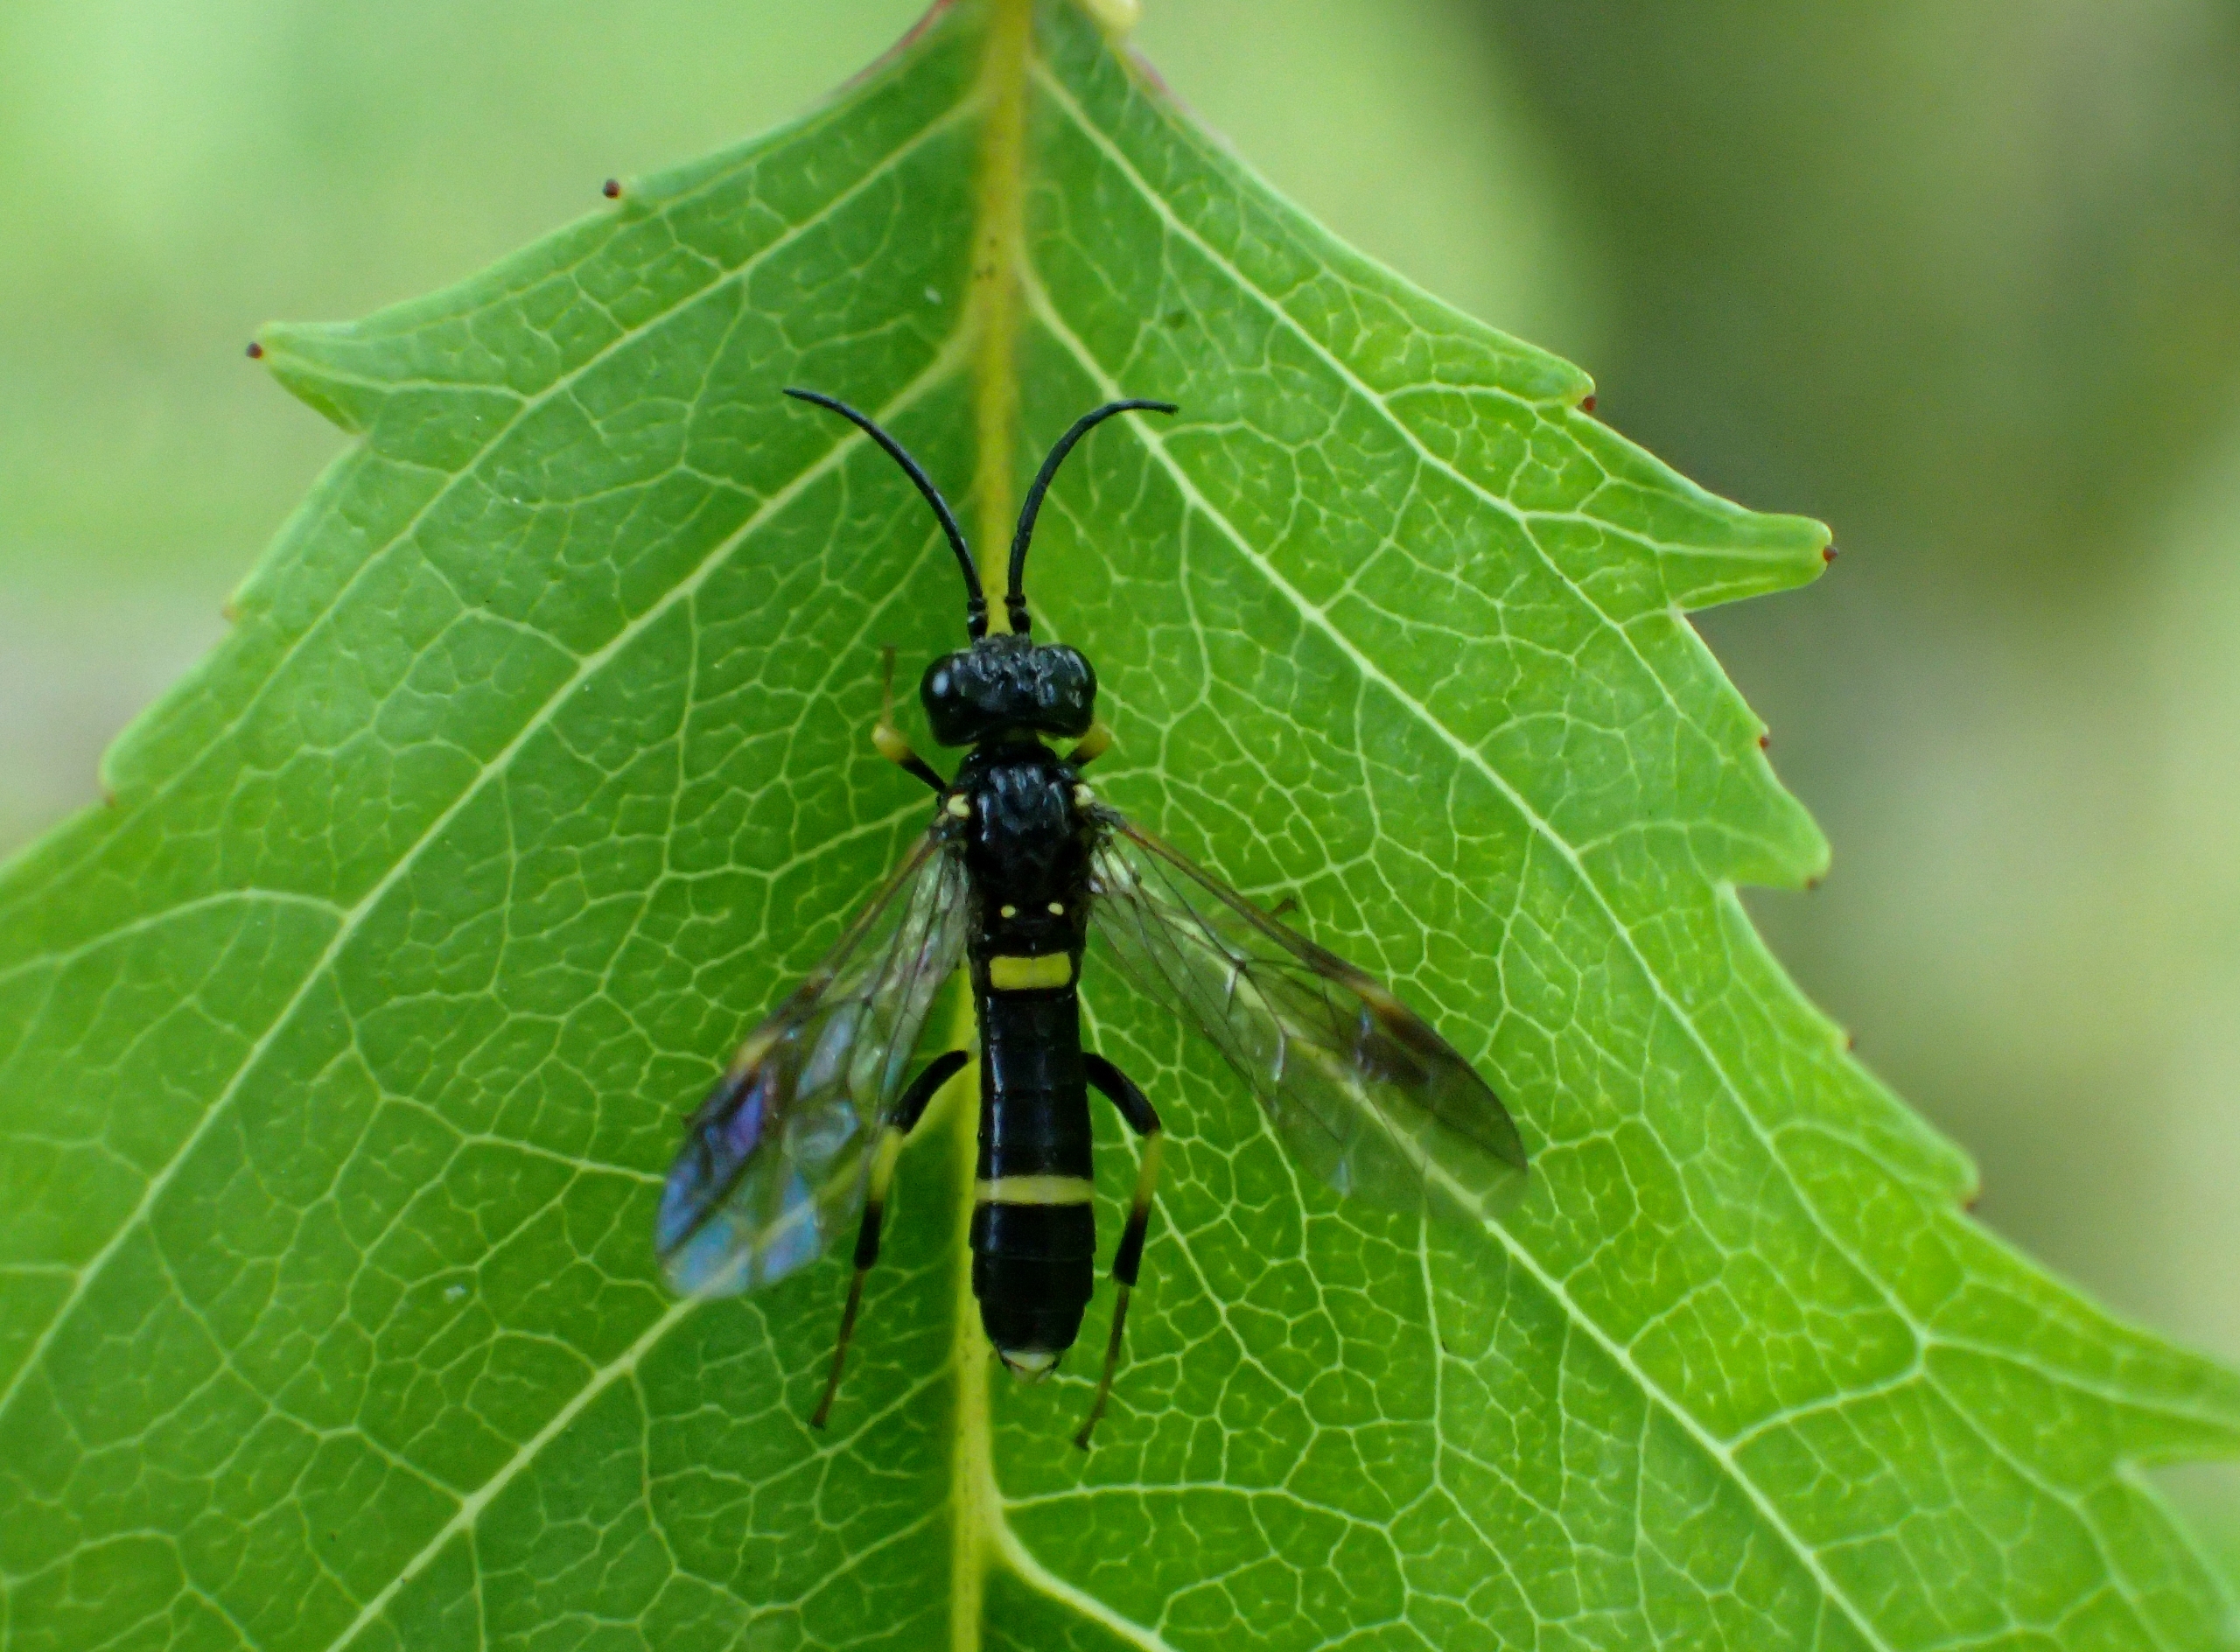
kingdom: Animalia
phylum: Arthropoda
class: Insecta
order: Hymenoptera
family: Tenthredinidae
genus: Tenthredo
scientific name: Tenthredo marginella
